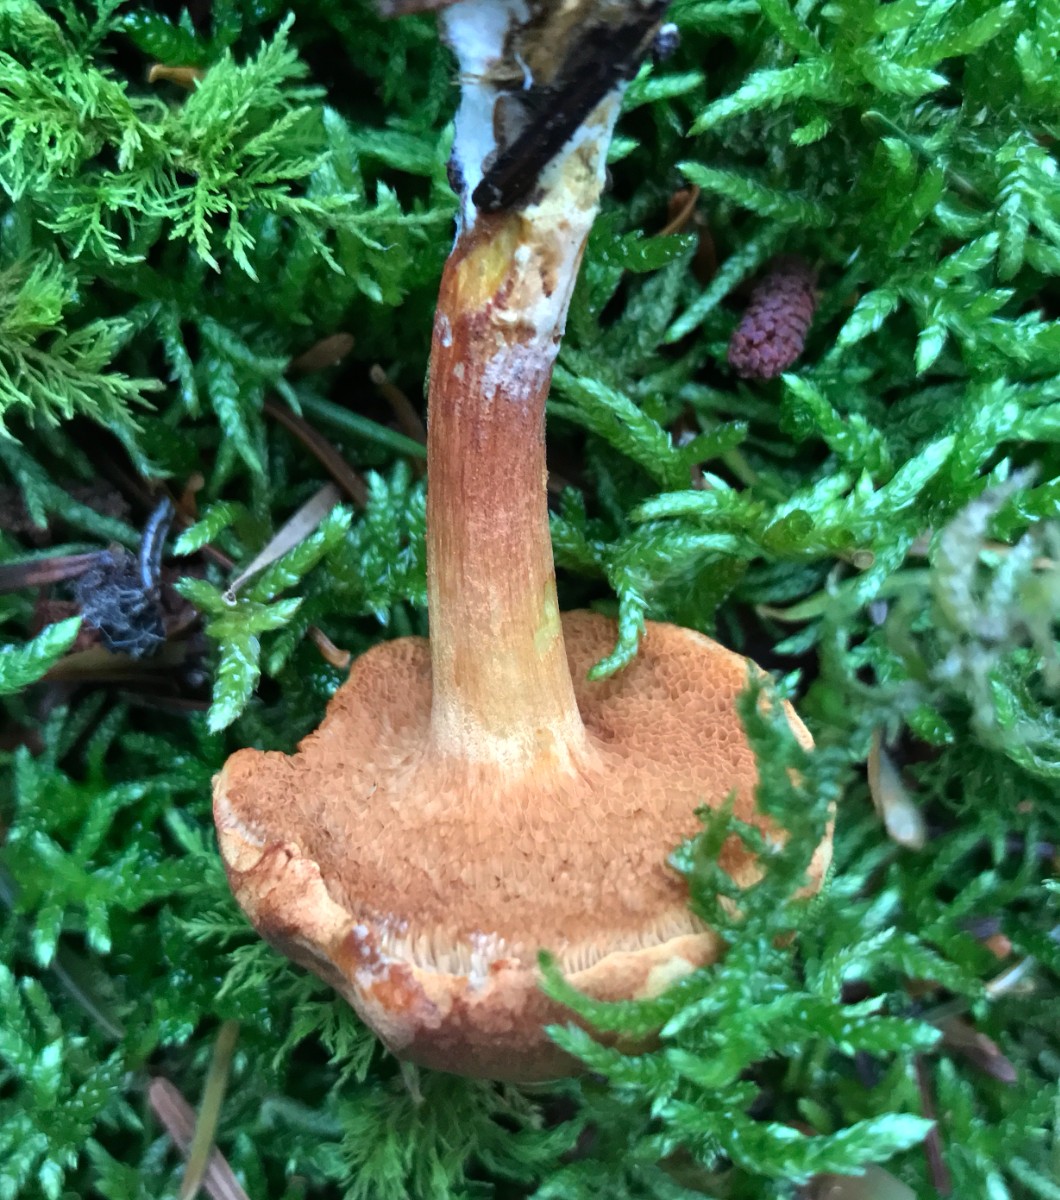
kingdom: Fungi
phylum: Basidiomycota
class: Agaricomycetes
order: Boletales
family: Boletaceae
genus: Chalciporus
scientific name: Chalciporus piperatus
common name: peberrørhat
